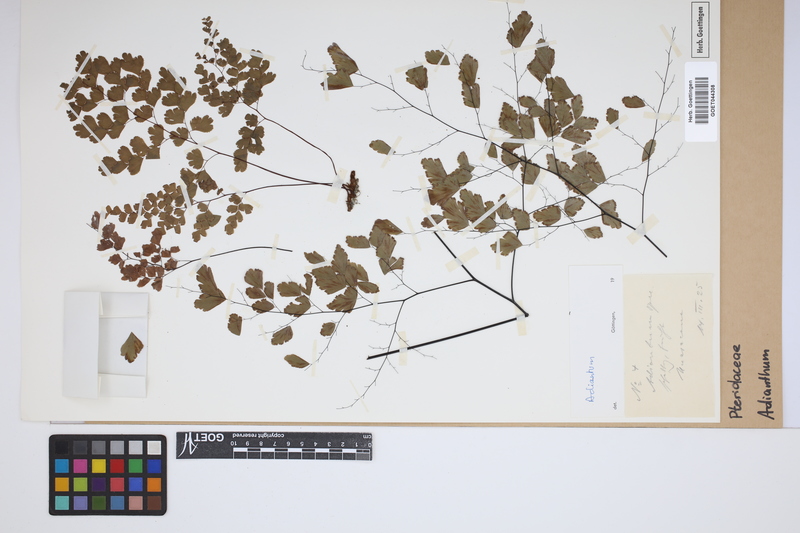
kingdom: Plantae
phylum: Tracheophyta
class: Polypodiopsida
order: Polypodiales
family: Pteridaceae
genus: Adiantum
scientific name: Adiantum
